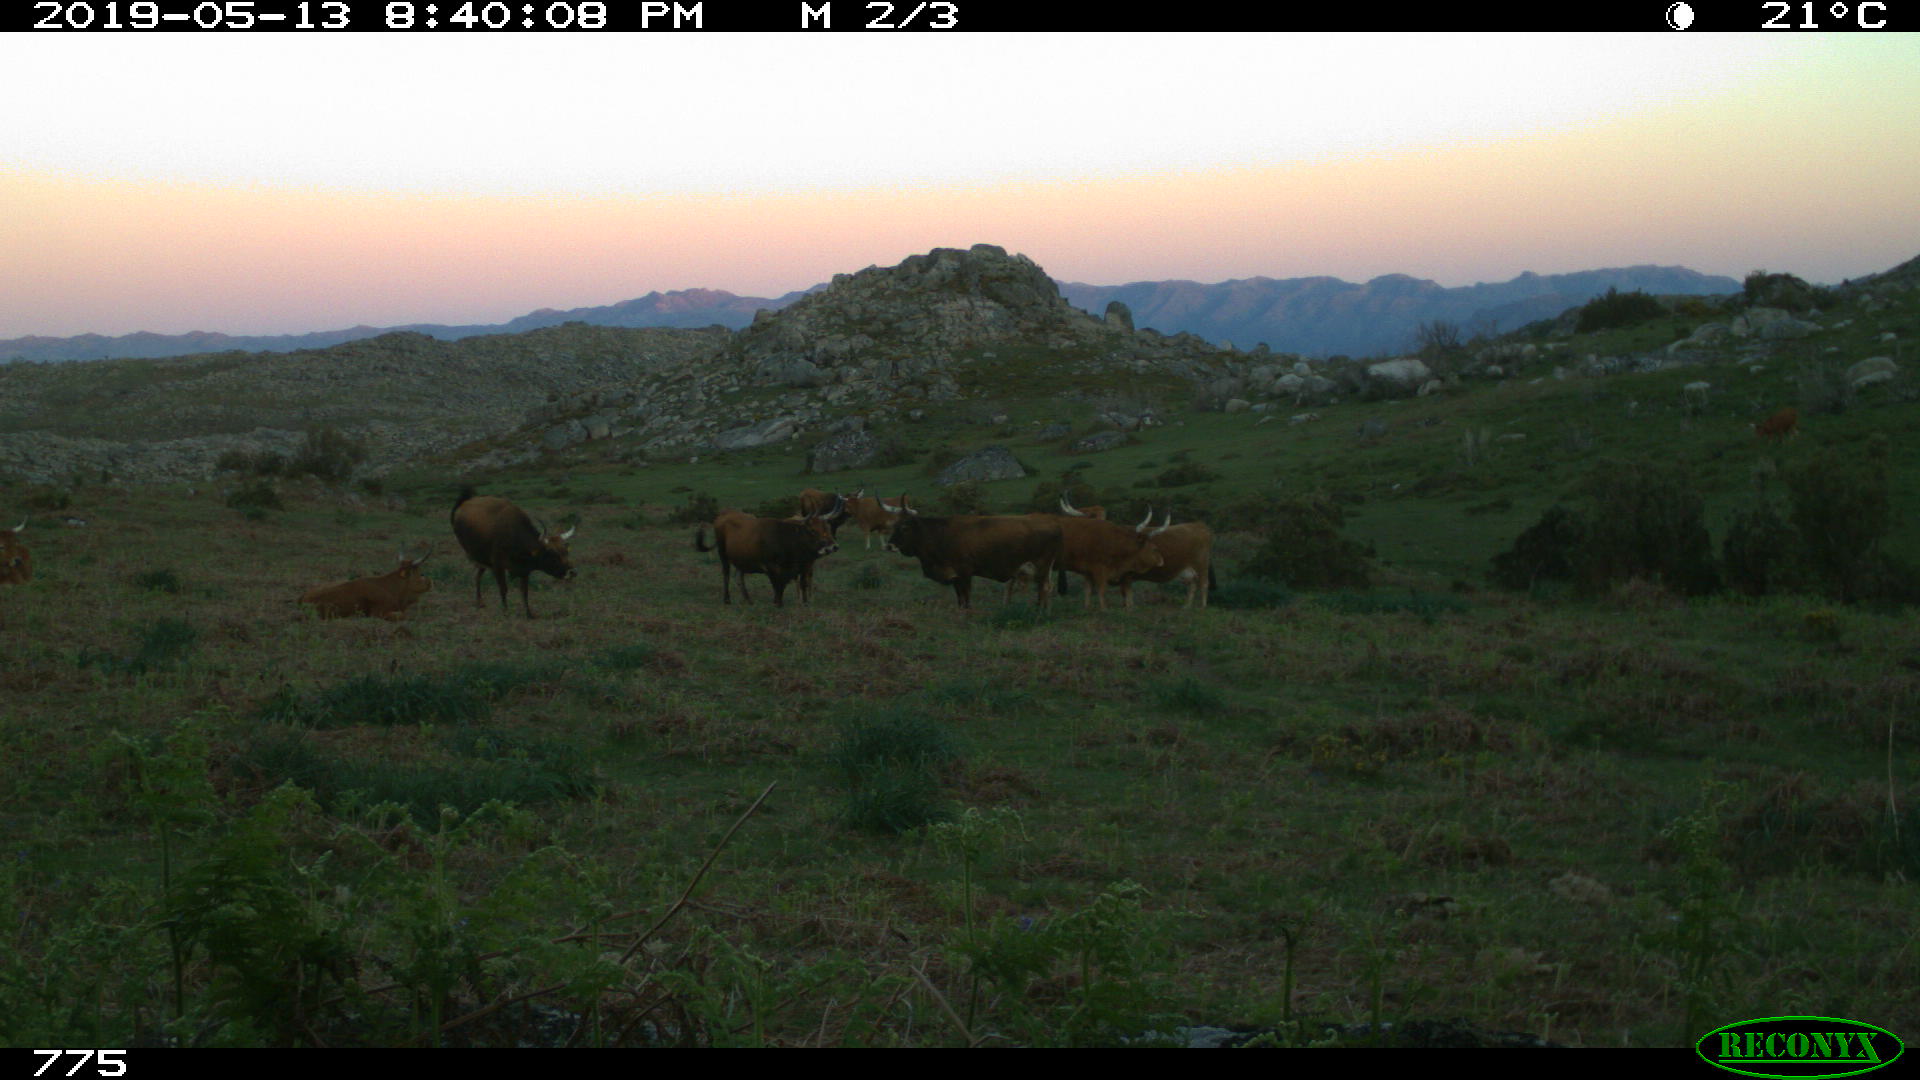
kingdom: Animalia
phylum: Chordata
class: Mammalia
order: Artiodactyla
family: Bovidae
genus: Bos
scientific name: Bos taurus
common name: Domesticated cattle
